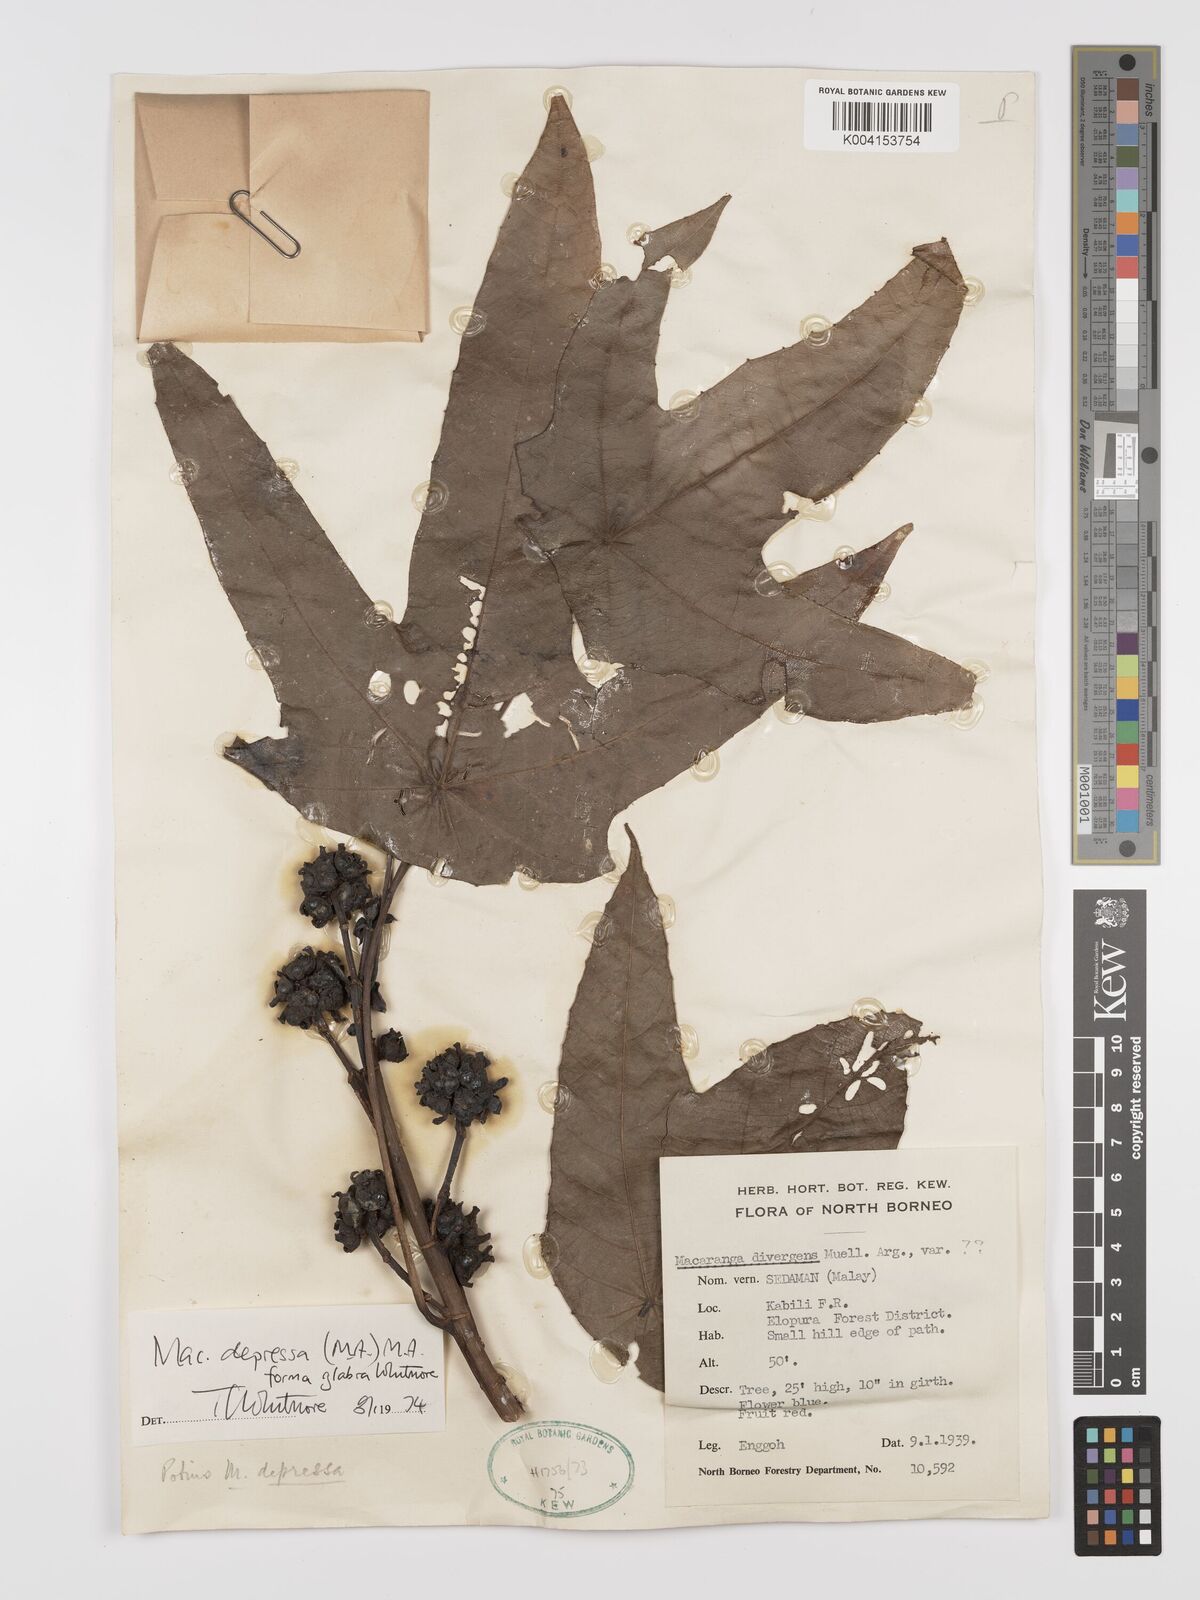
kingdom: Plantae
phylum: Tracheophyta
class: Magnoliopsida
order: Malpighiales
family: Euphorbiaceae
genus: Macaranga
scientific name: Macaranga depressa
